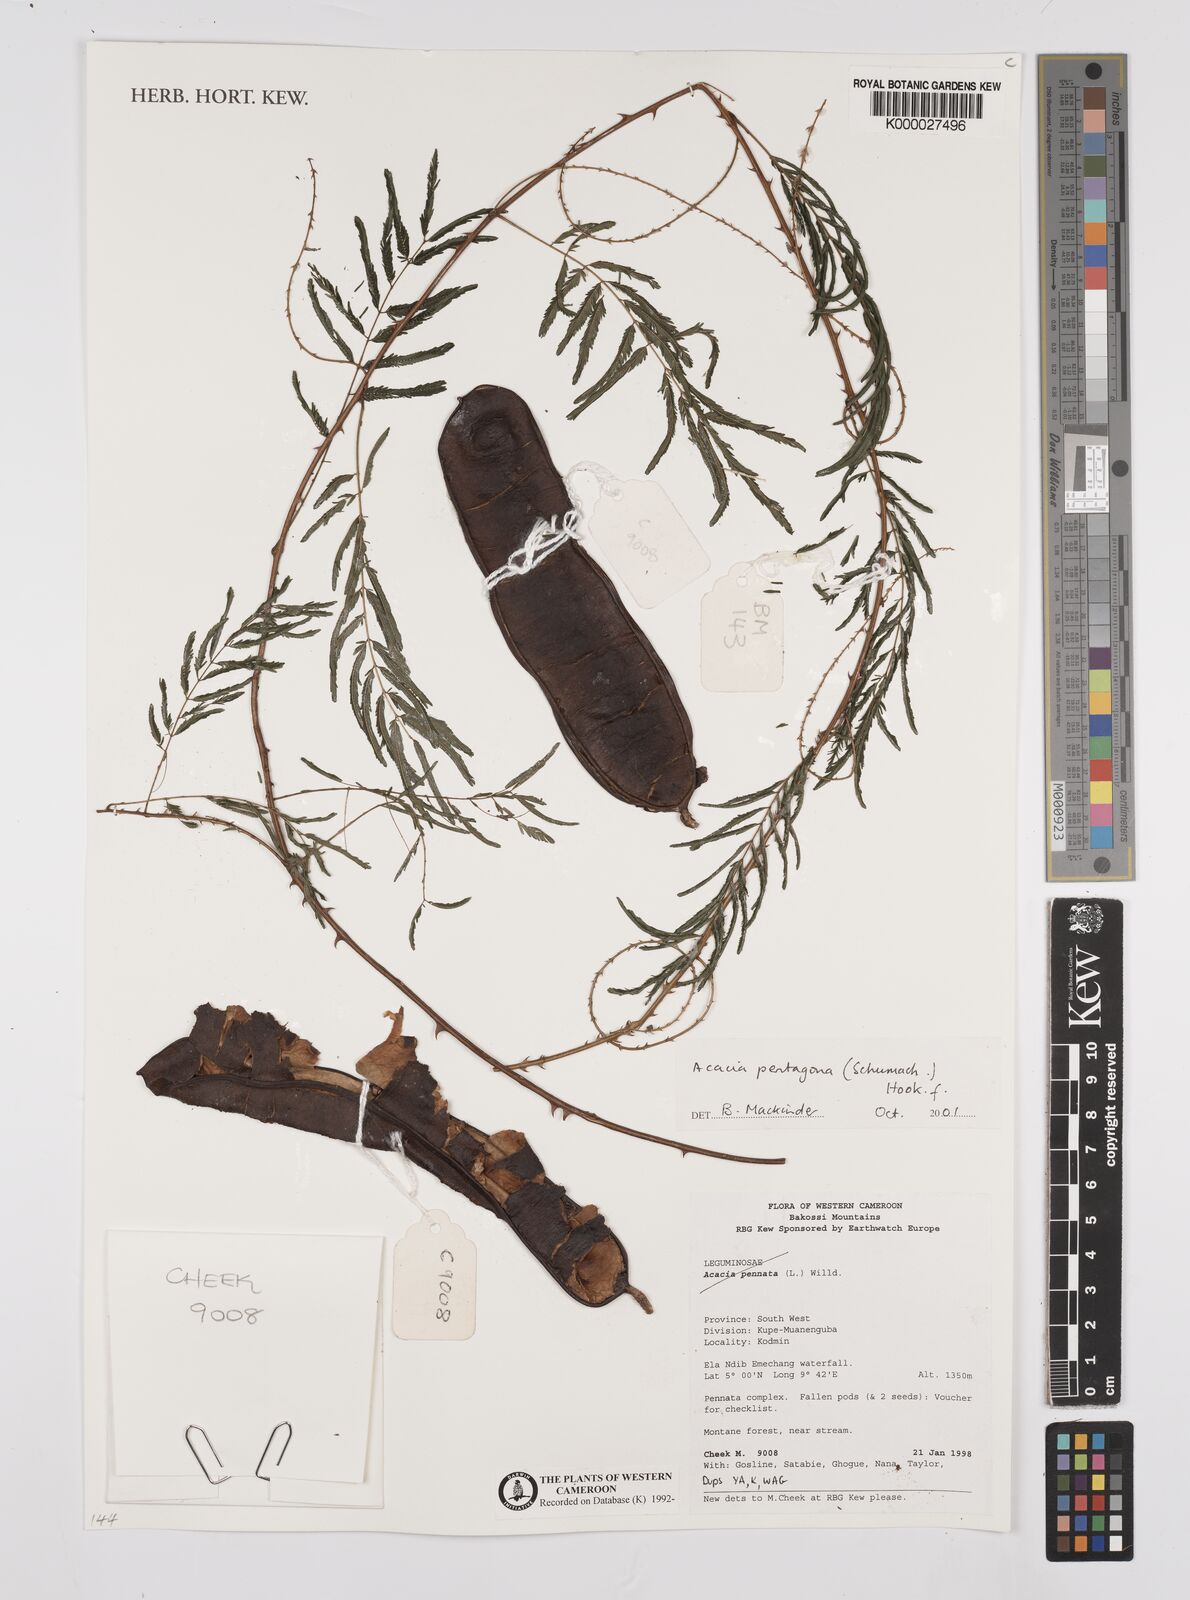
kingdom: Plantae
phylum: Tracheophyta
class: Magnoliopsida
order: Fabales
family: Fabaceae
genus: Senegalia
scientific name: Senegalia pentagona
